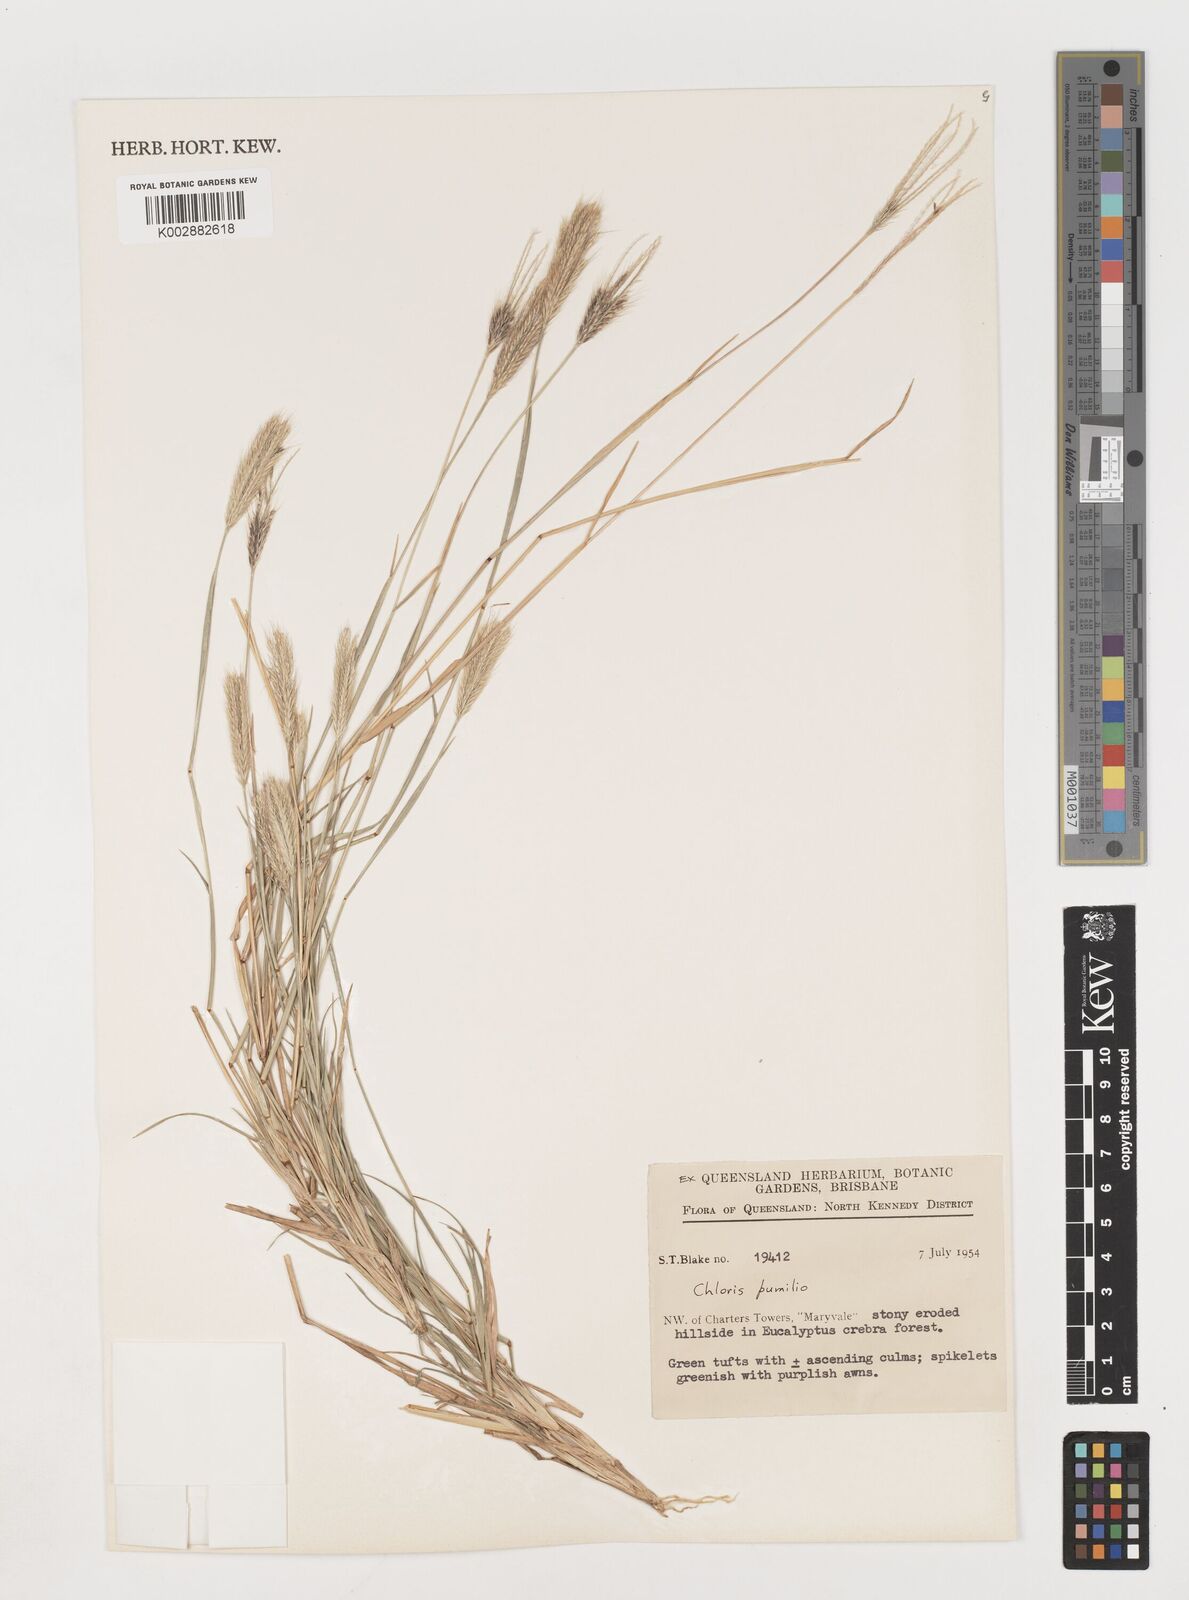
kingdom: Plantae
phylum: Tracheophyta
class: Liliopsida
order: Poales
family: Poaceae
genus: Chloris
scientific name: Chloris pumilio
